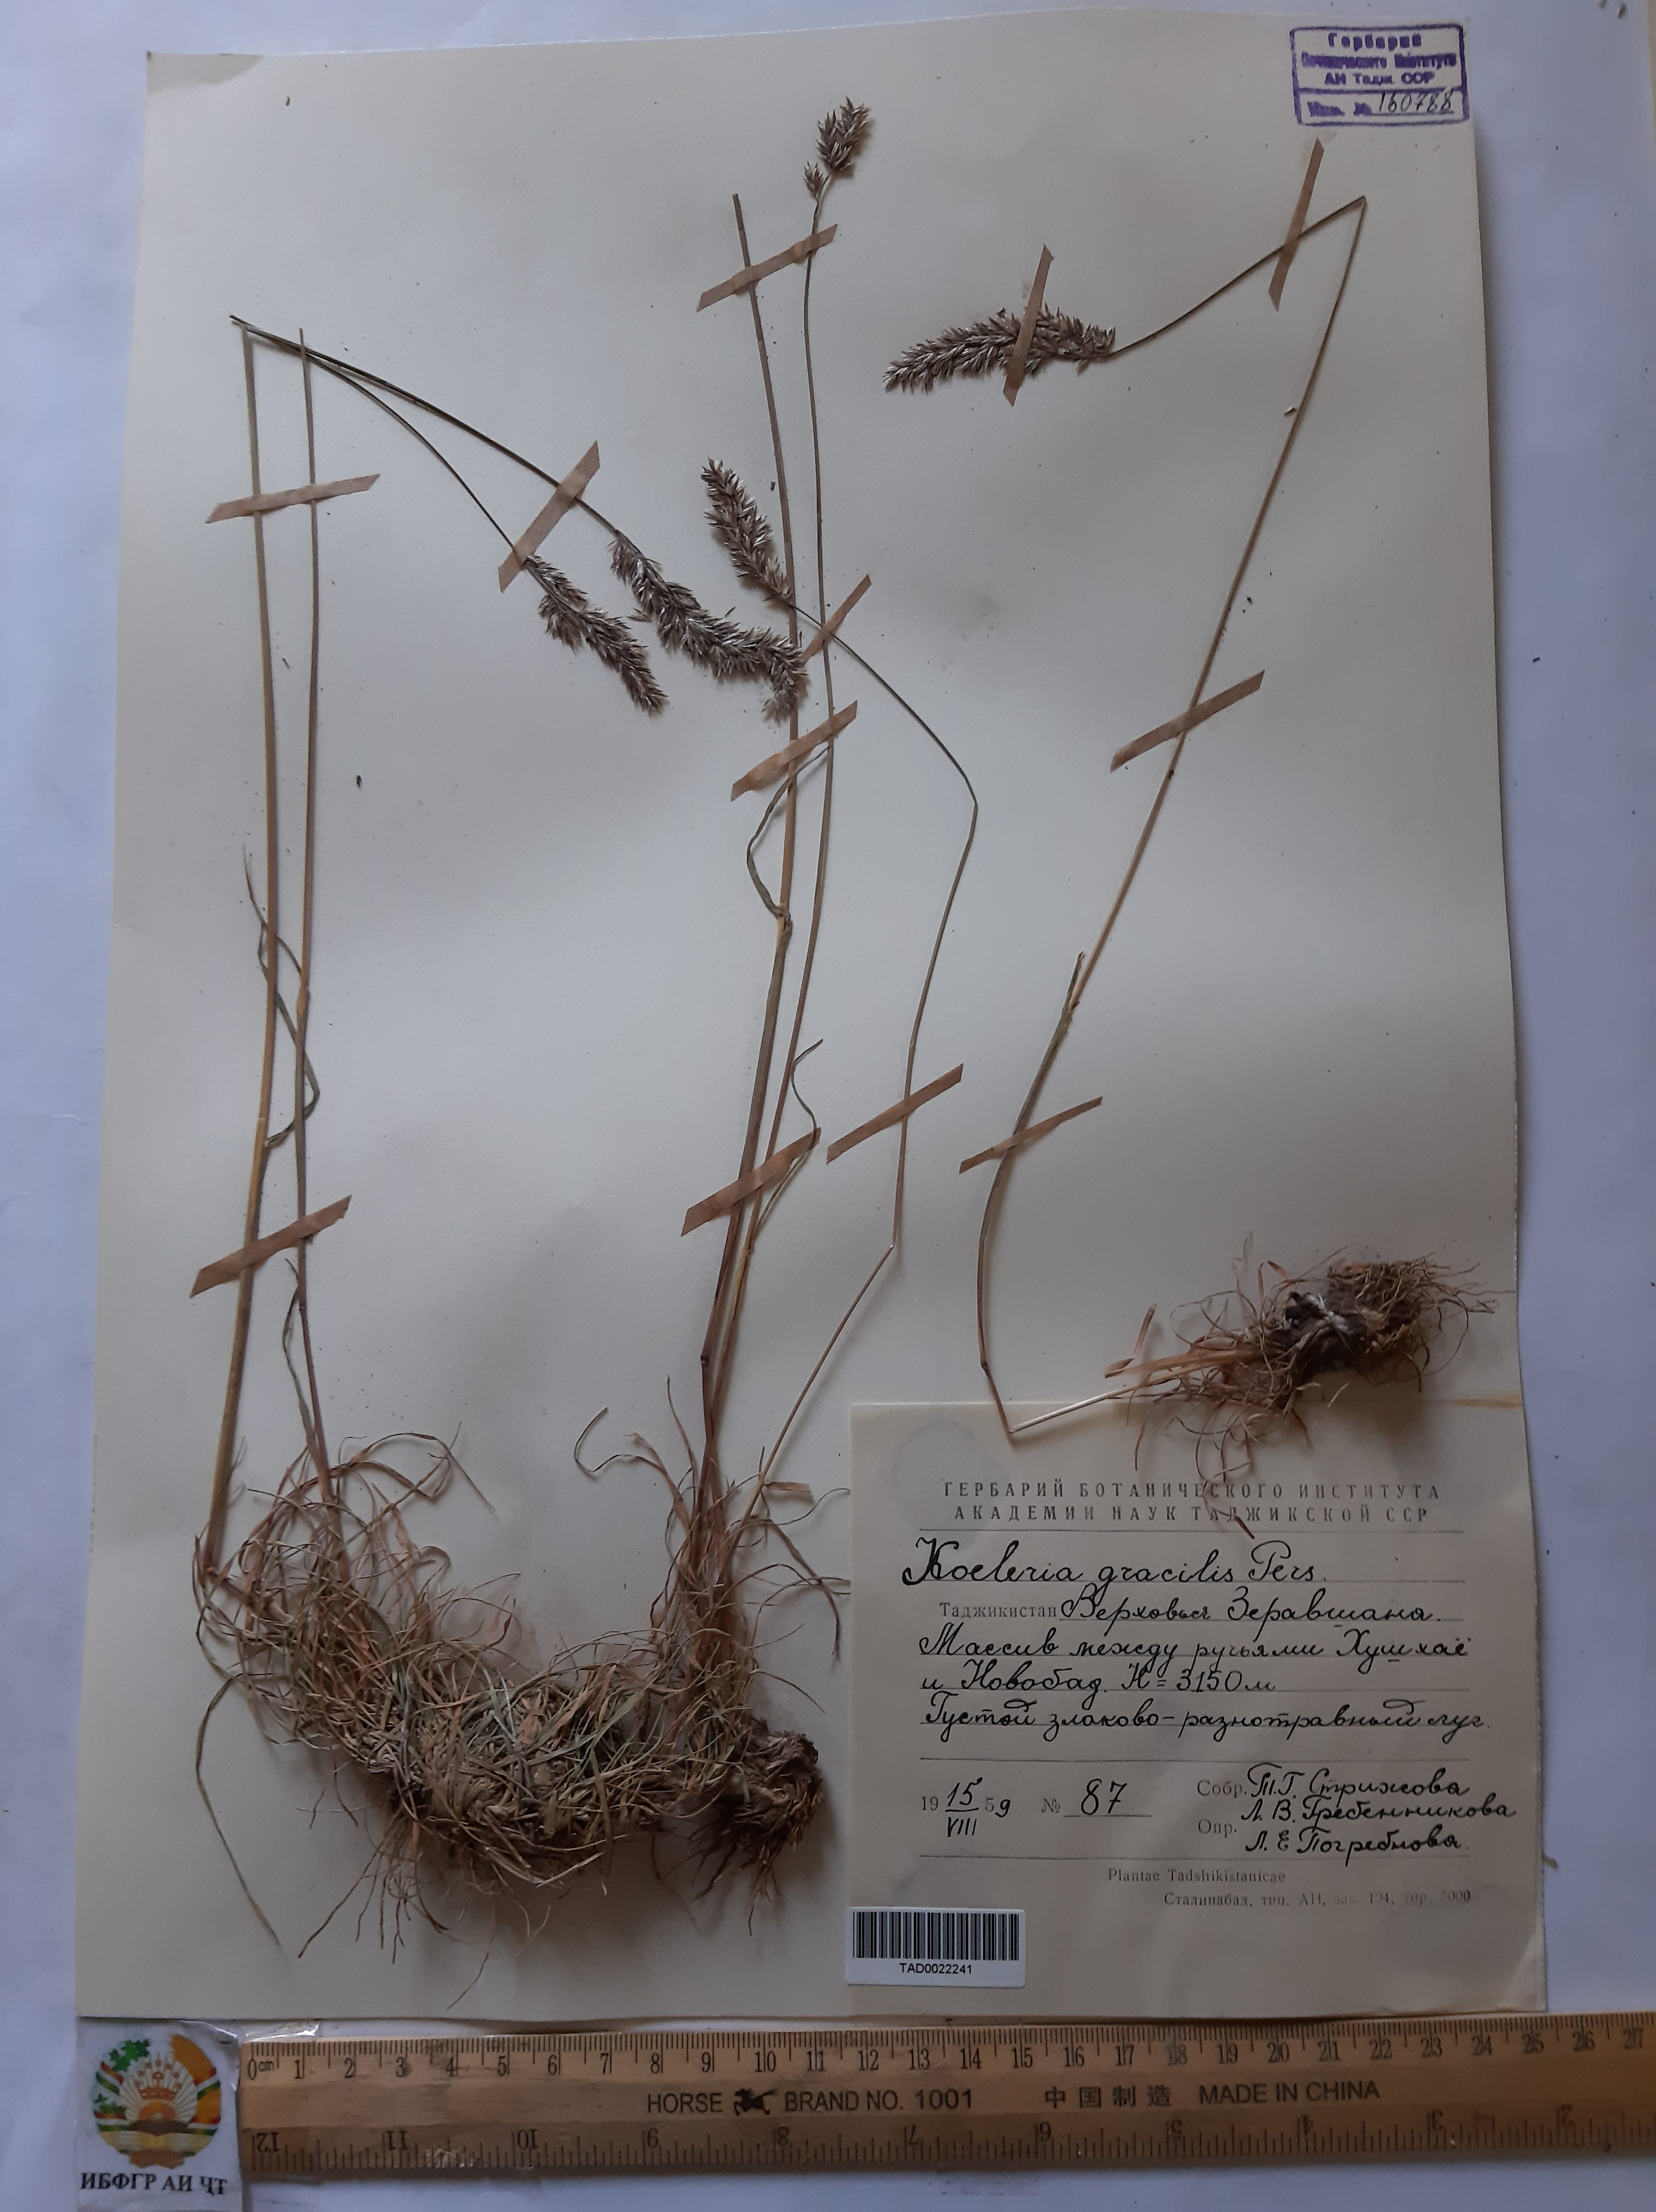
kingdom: Plantae
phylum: Tracheophyta
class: Liliopsida
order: Poales
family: Poaceae
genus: Koeleria
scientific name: Koeleria macrantha
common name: Crested hair-grass
